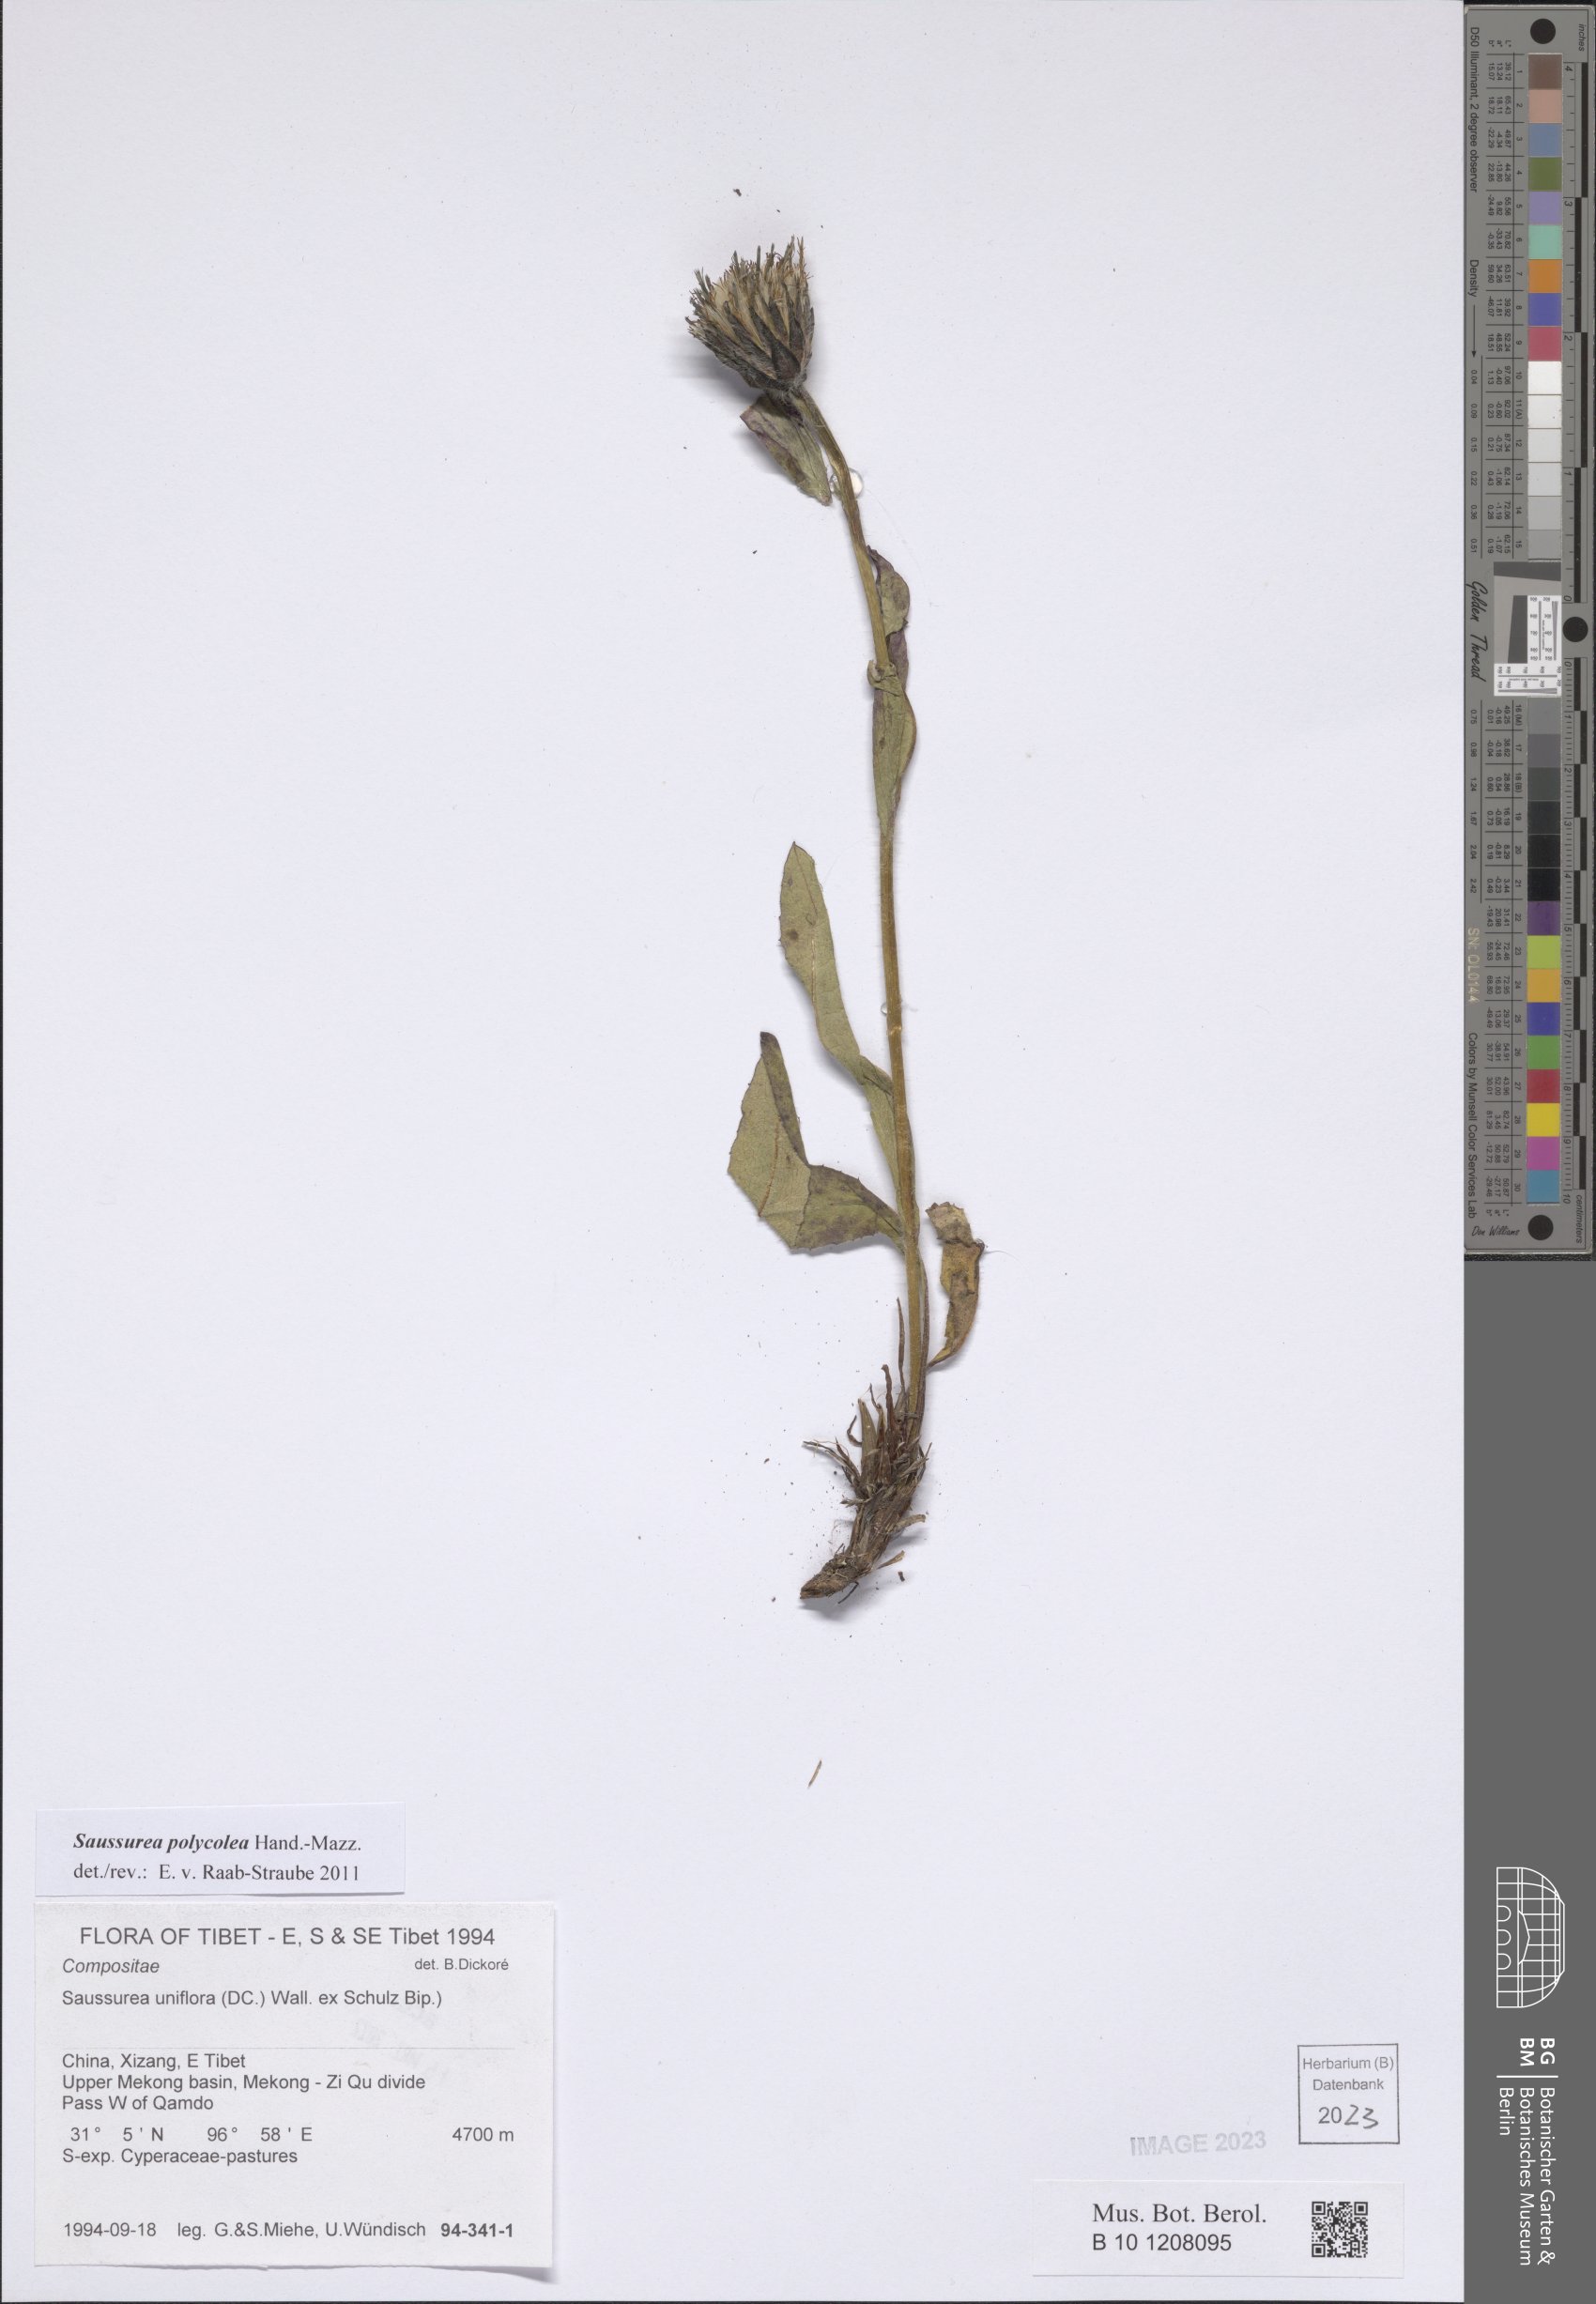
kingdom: Plantae
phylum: Tracheophyta
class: Magnoliopsida
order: Asterales
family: Asteraceae
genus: Saussurea
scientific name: Saussurea polycolea
